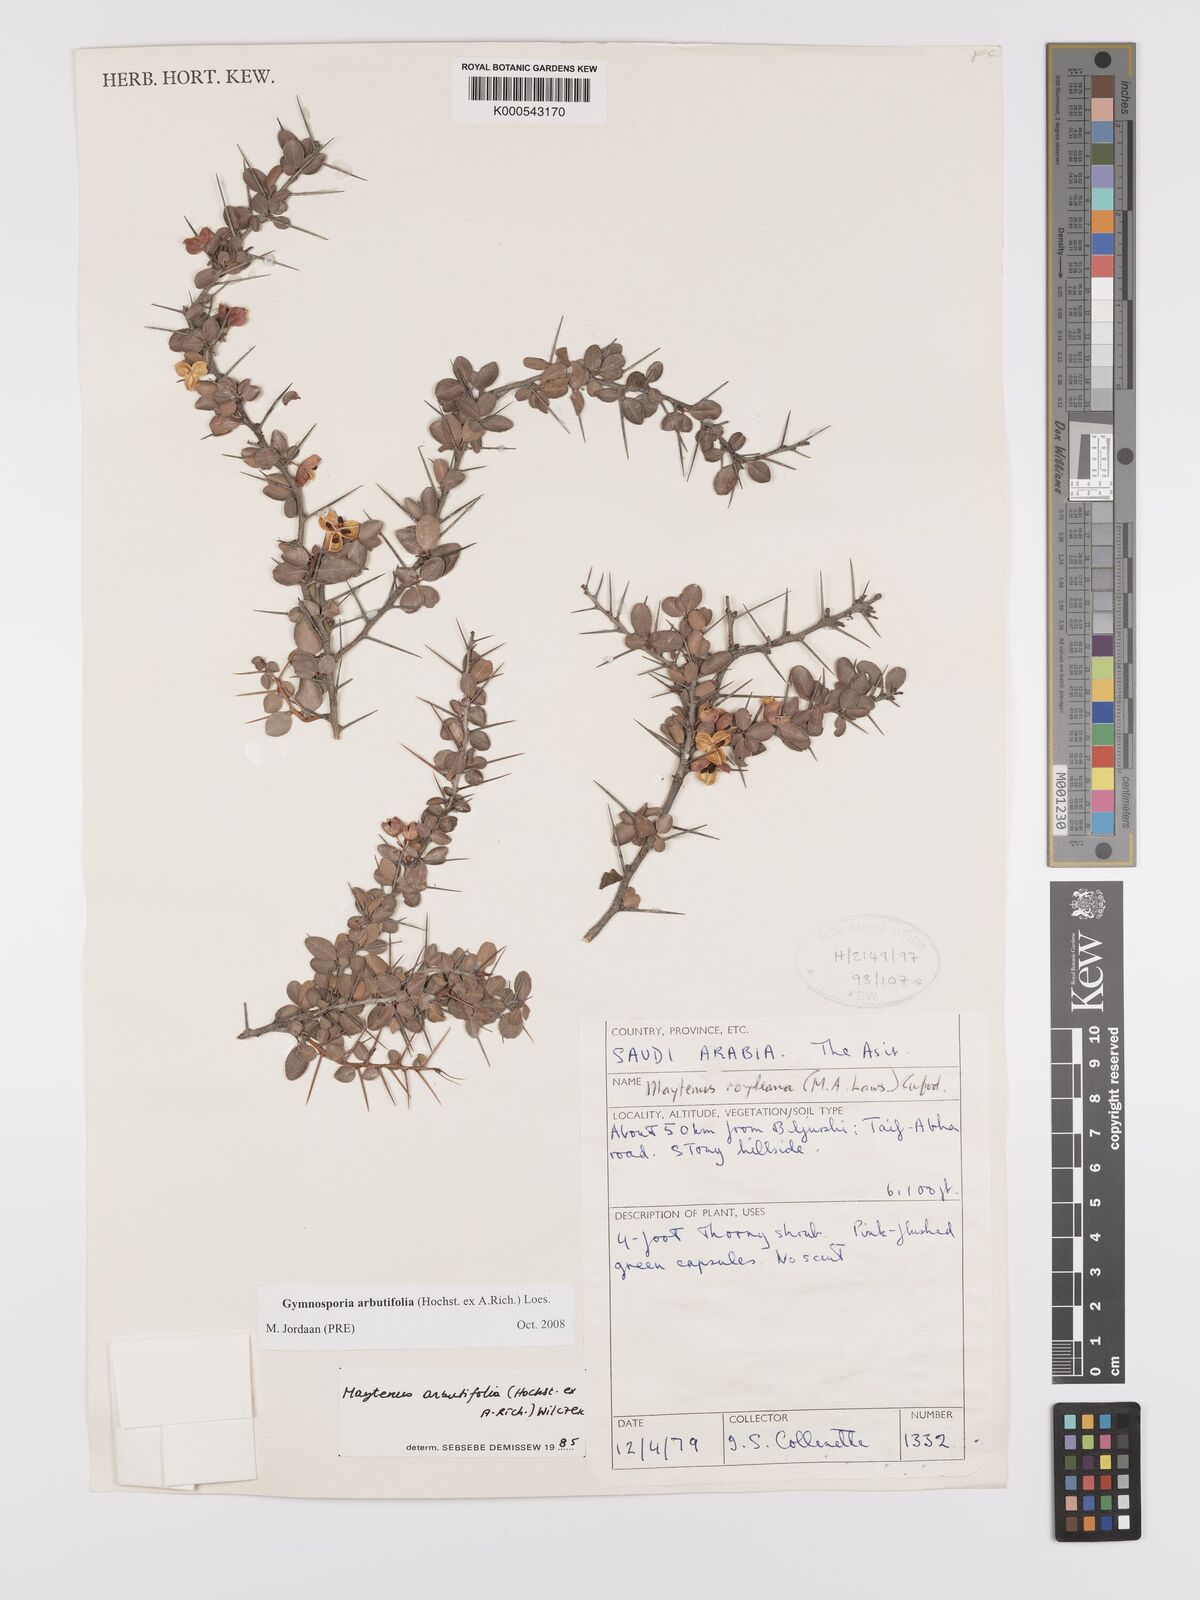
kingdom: Plantae
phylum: Tracheophyta
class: Magnoliopsida
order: Celastrales
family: Celastraceae
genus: Gymnosporia
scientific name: Gymnosporia arbutifolia
